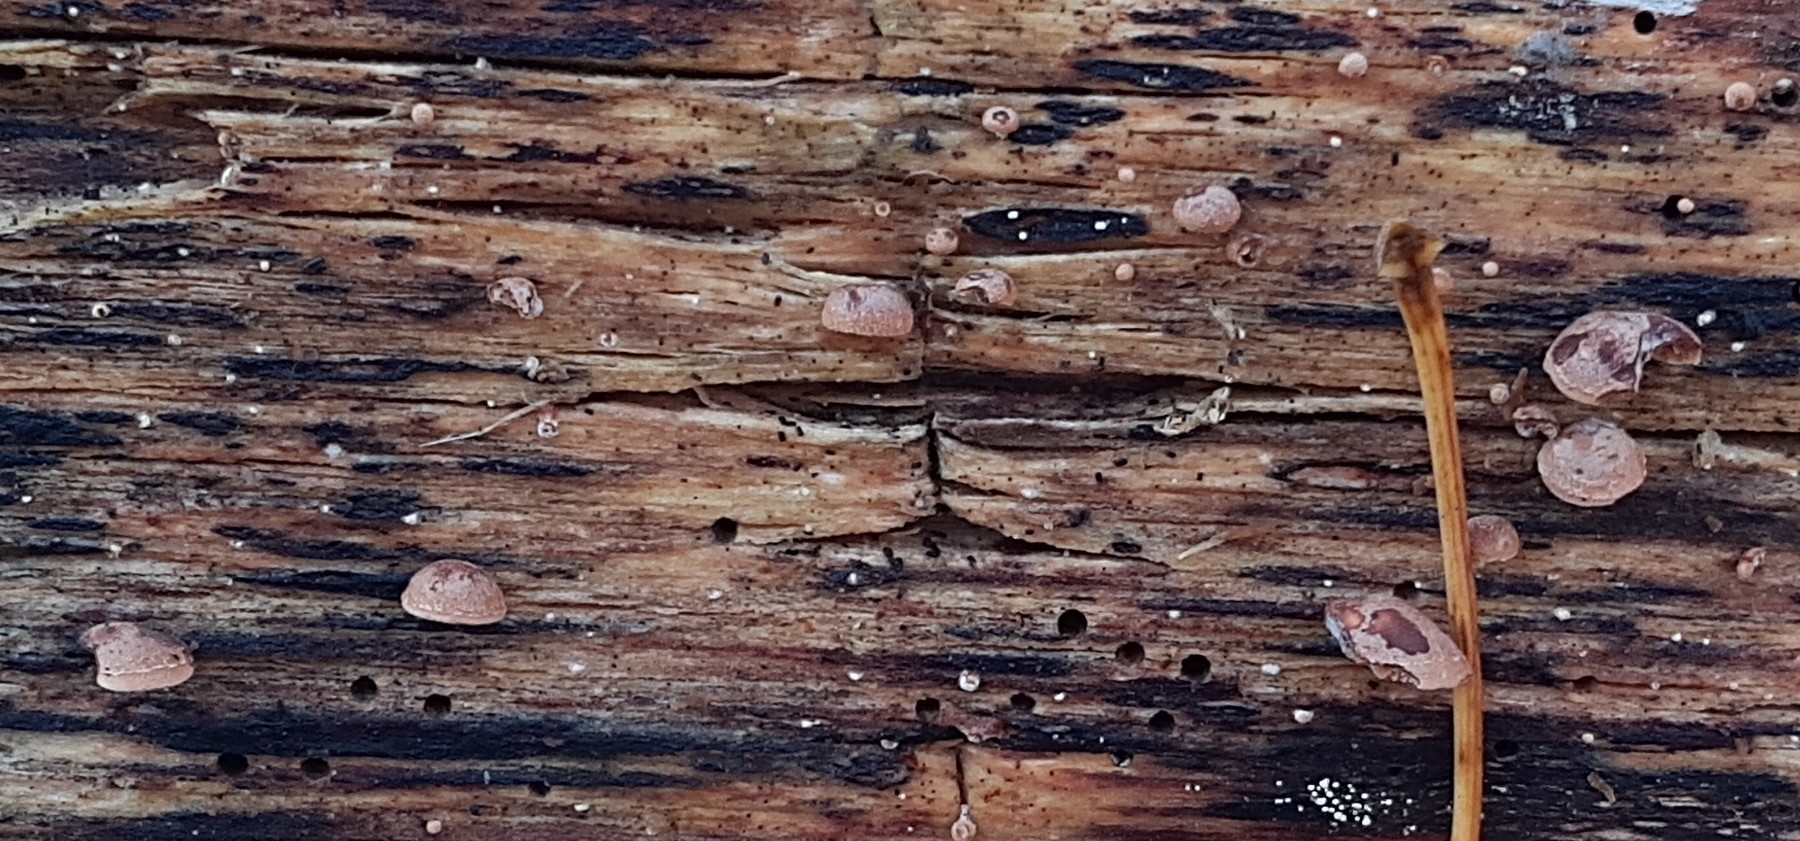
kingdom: Fungi
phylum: Basidiomycota
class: Agaricomycetes
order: Agaricales
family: Strophariaceae
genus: Deconica
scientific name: Deconica horizontalis
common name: ved-stråhat
